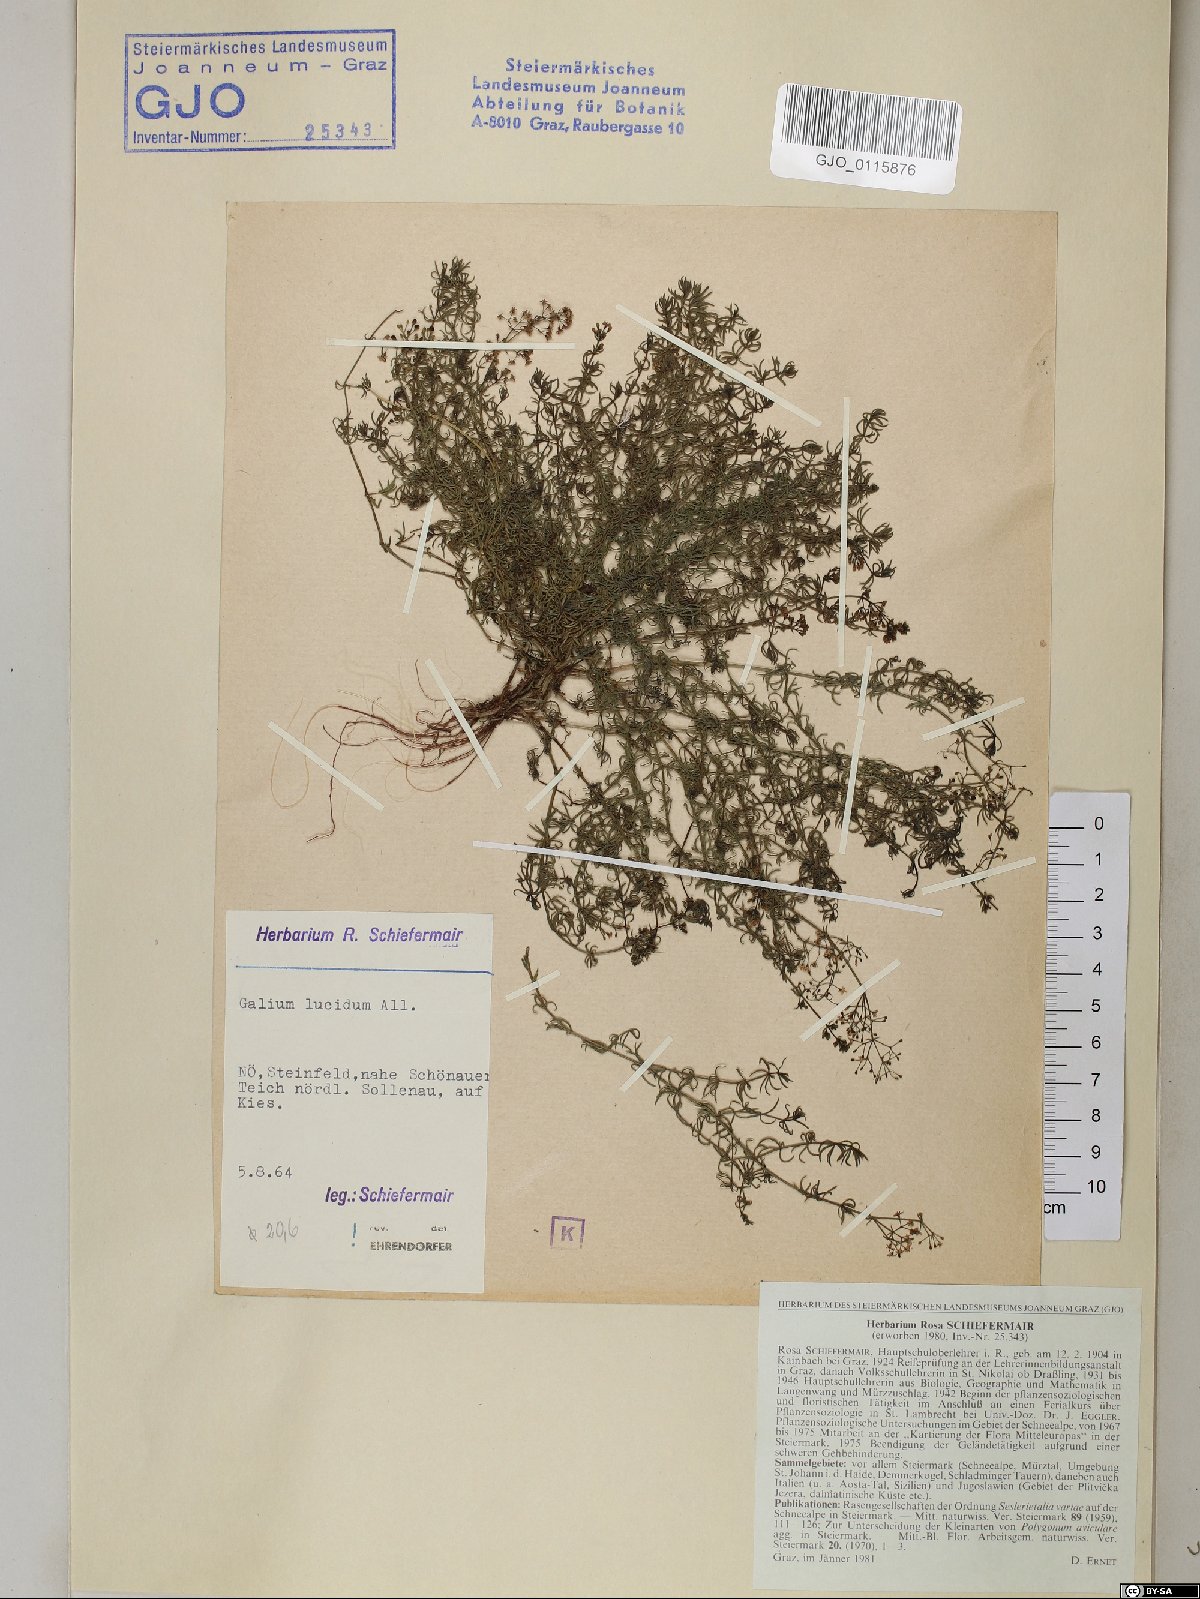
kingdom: Plantae
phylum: Tracheophyta
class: Magnoliopsida
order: Gentianales
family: Rubiaceae
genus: Galium
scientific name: Galium lucidum
